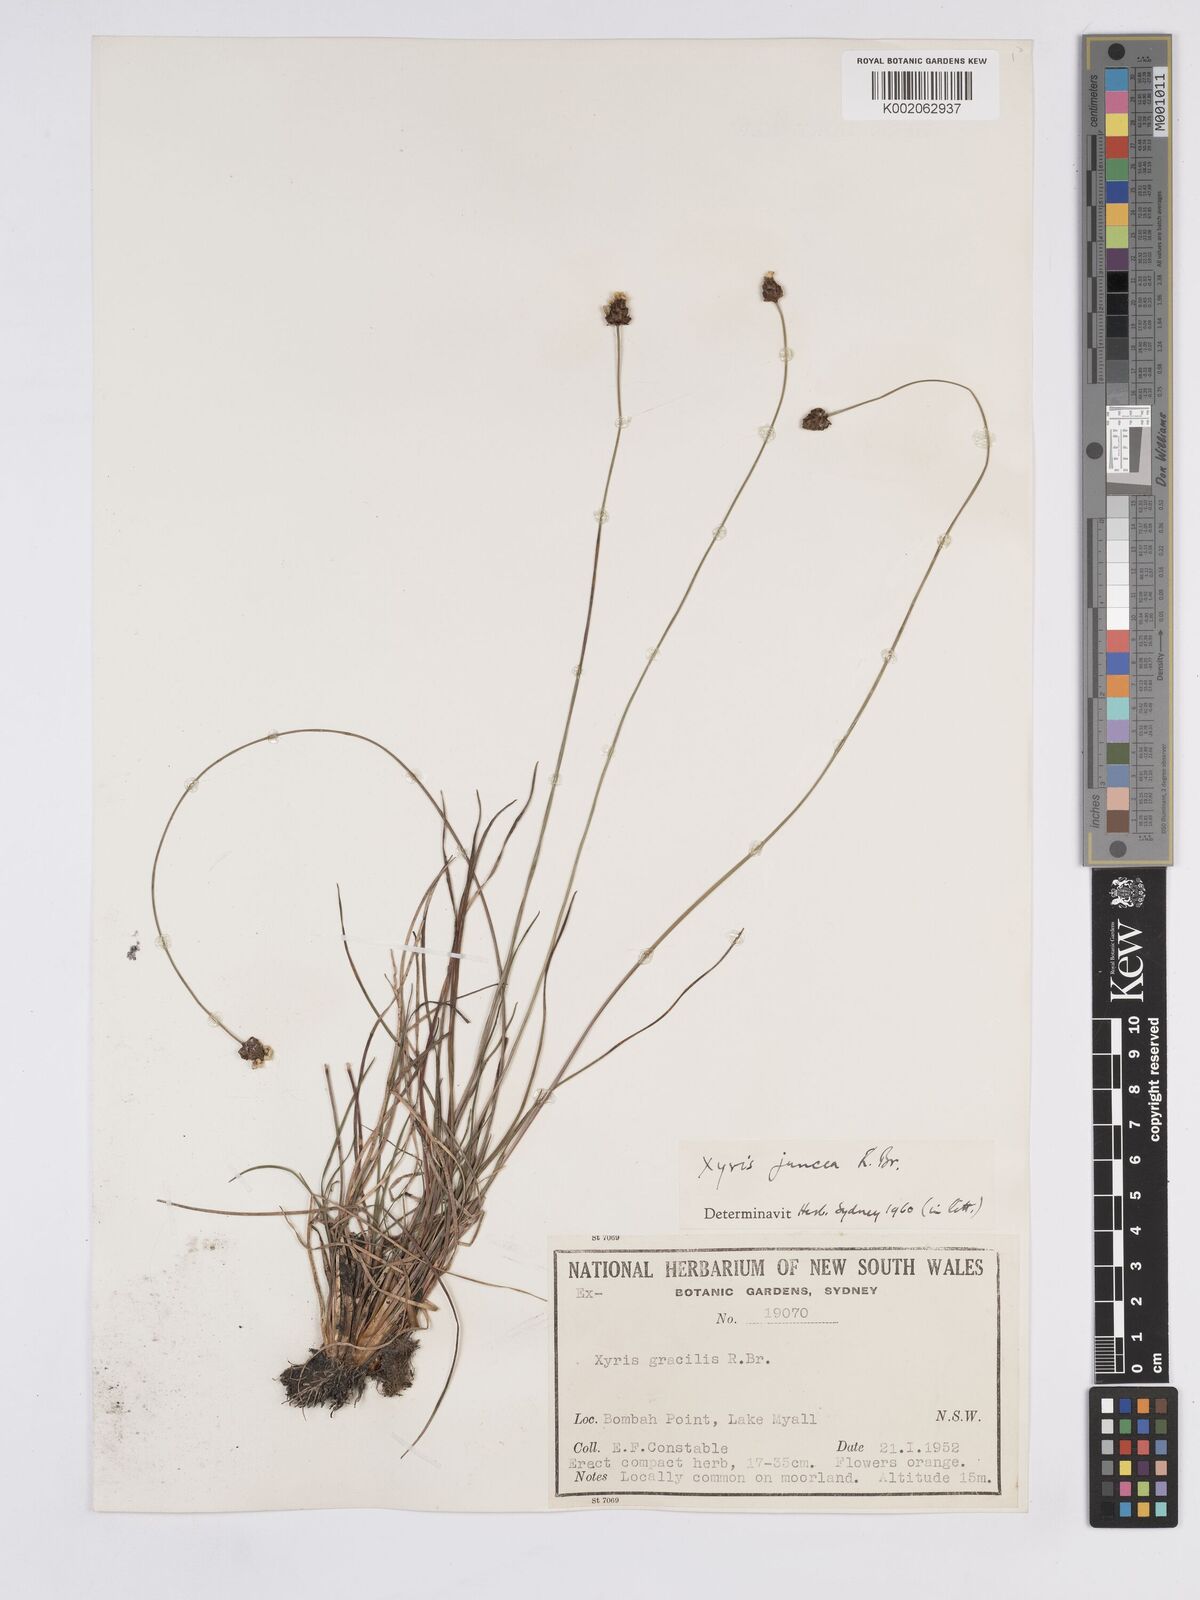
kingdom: Plantae
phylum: Tracheophyta
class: Liliopsida
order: Poales
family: Xyridaceae
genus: Xyris
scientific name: Xyris juncea
